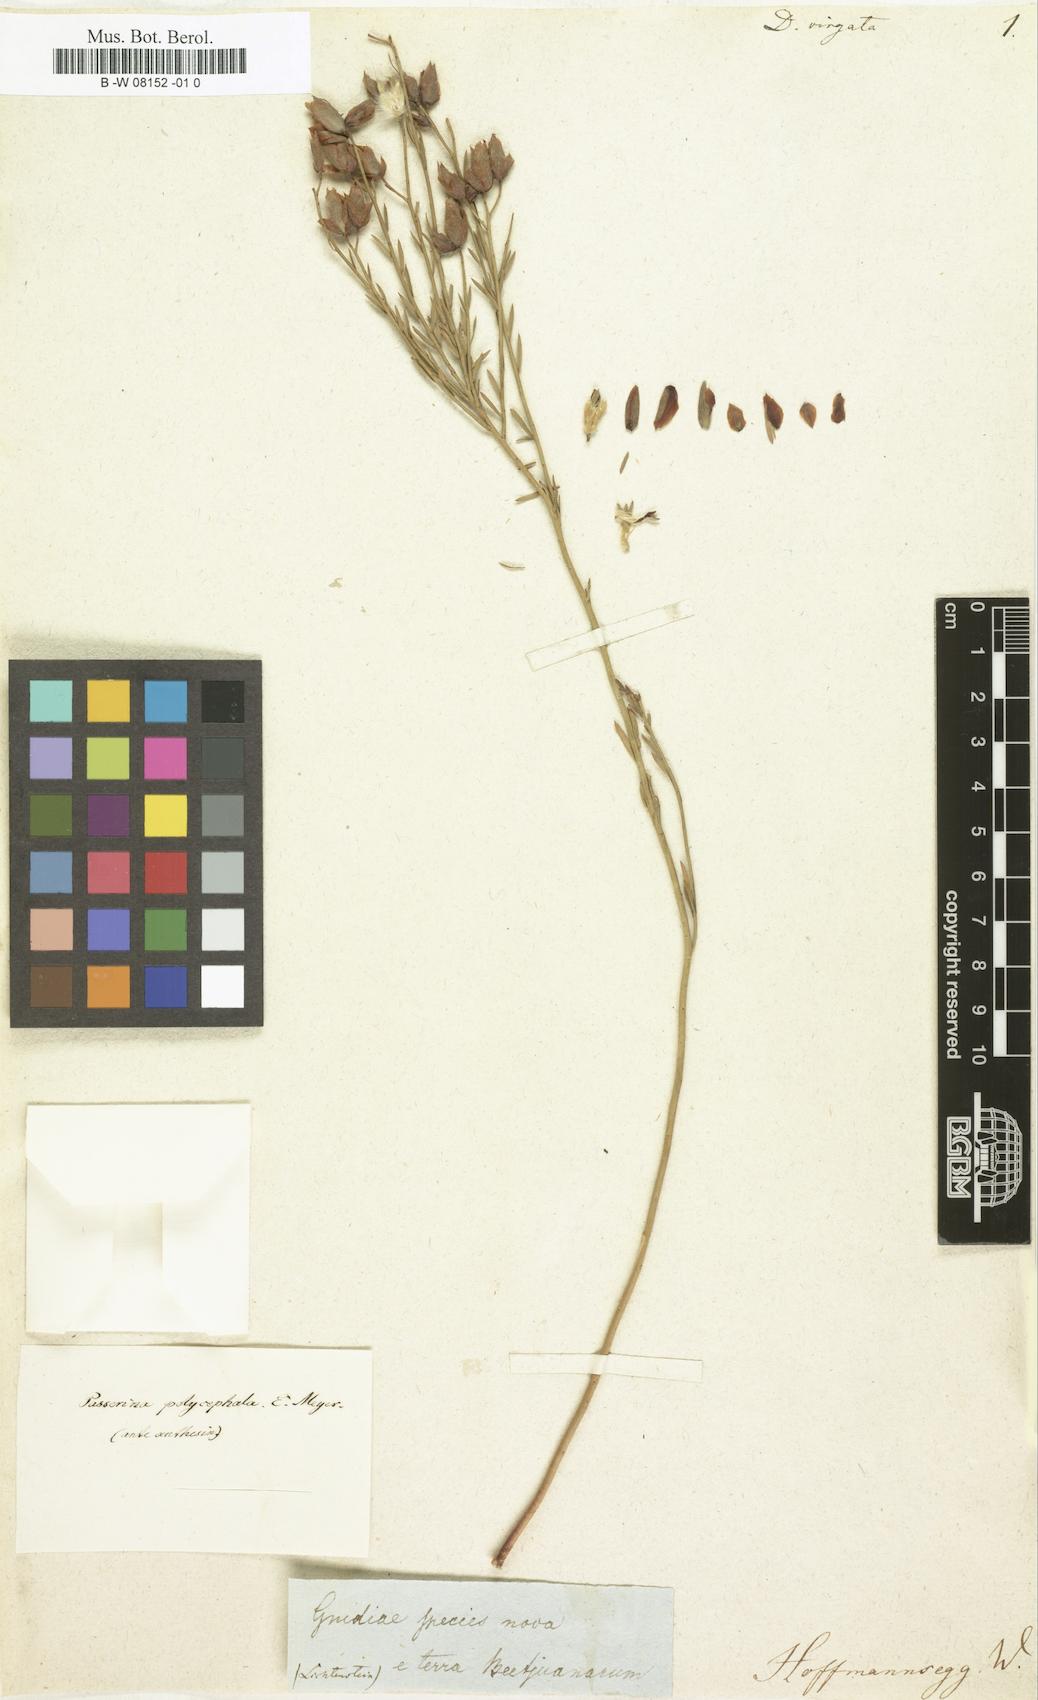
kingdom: Plantae
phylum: Tracheophyta
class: Magnoliopsida
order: Malvales
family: Thymelaeaceae
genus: Gnidia
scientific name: Gnidia polycephala
